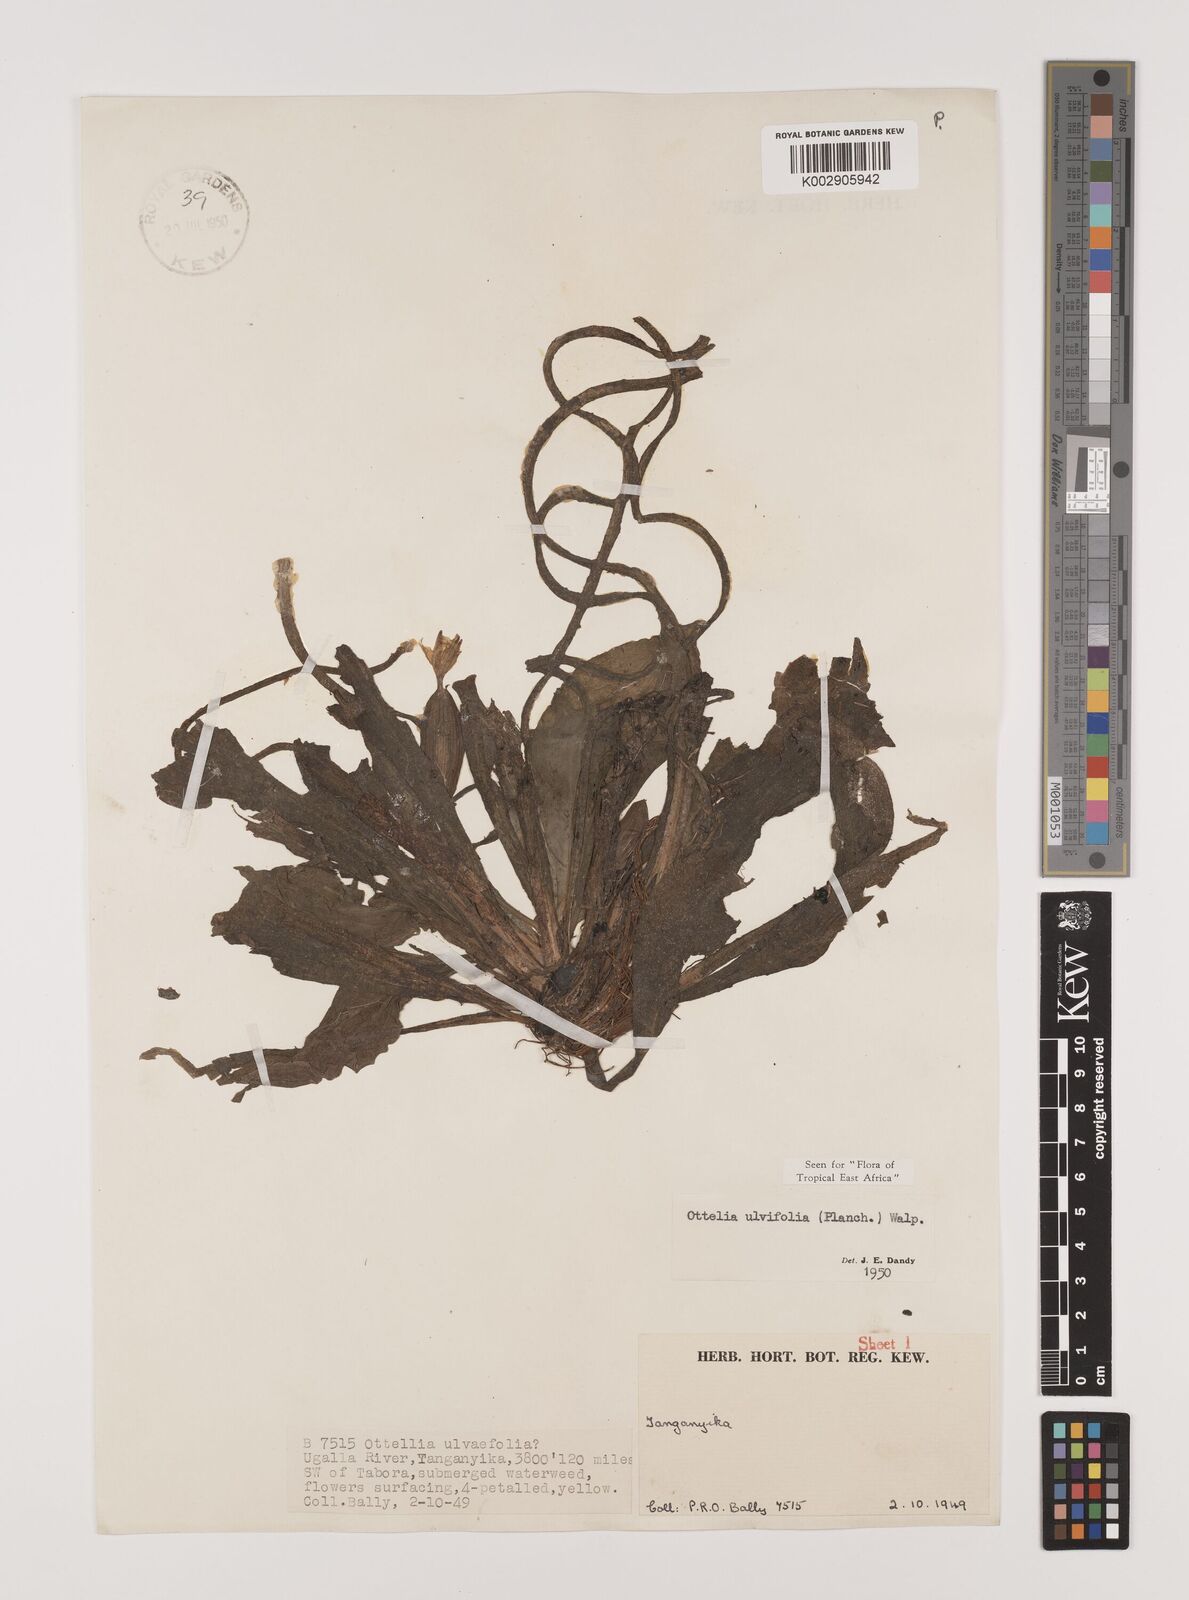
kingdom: Plantae
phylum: Tracheophyta
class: Liliopsida
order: Alismatales
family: Hydrocharitaceae
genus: Ottelia
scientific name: Ottelia ulvifolia
